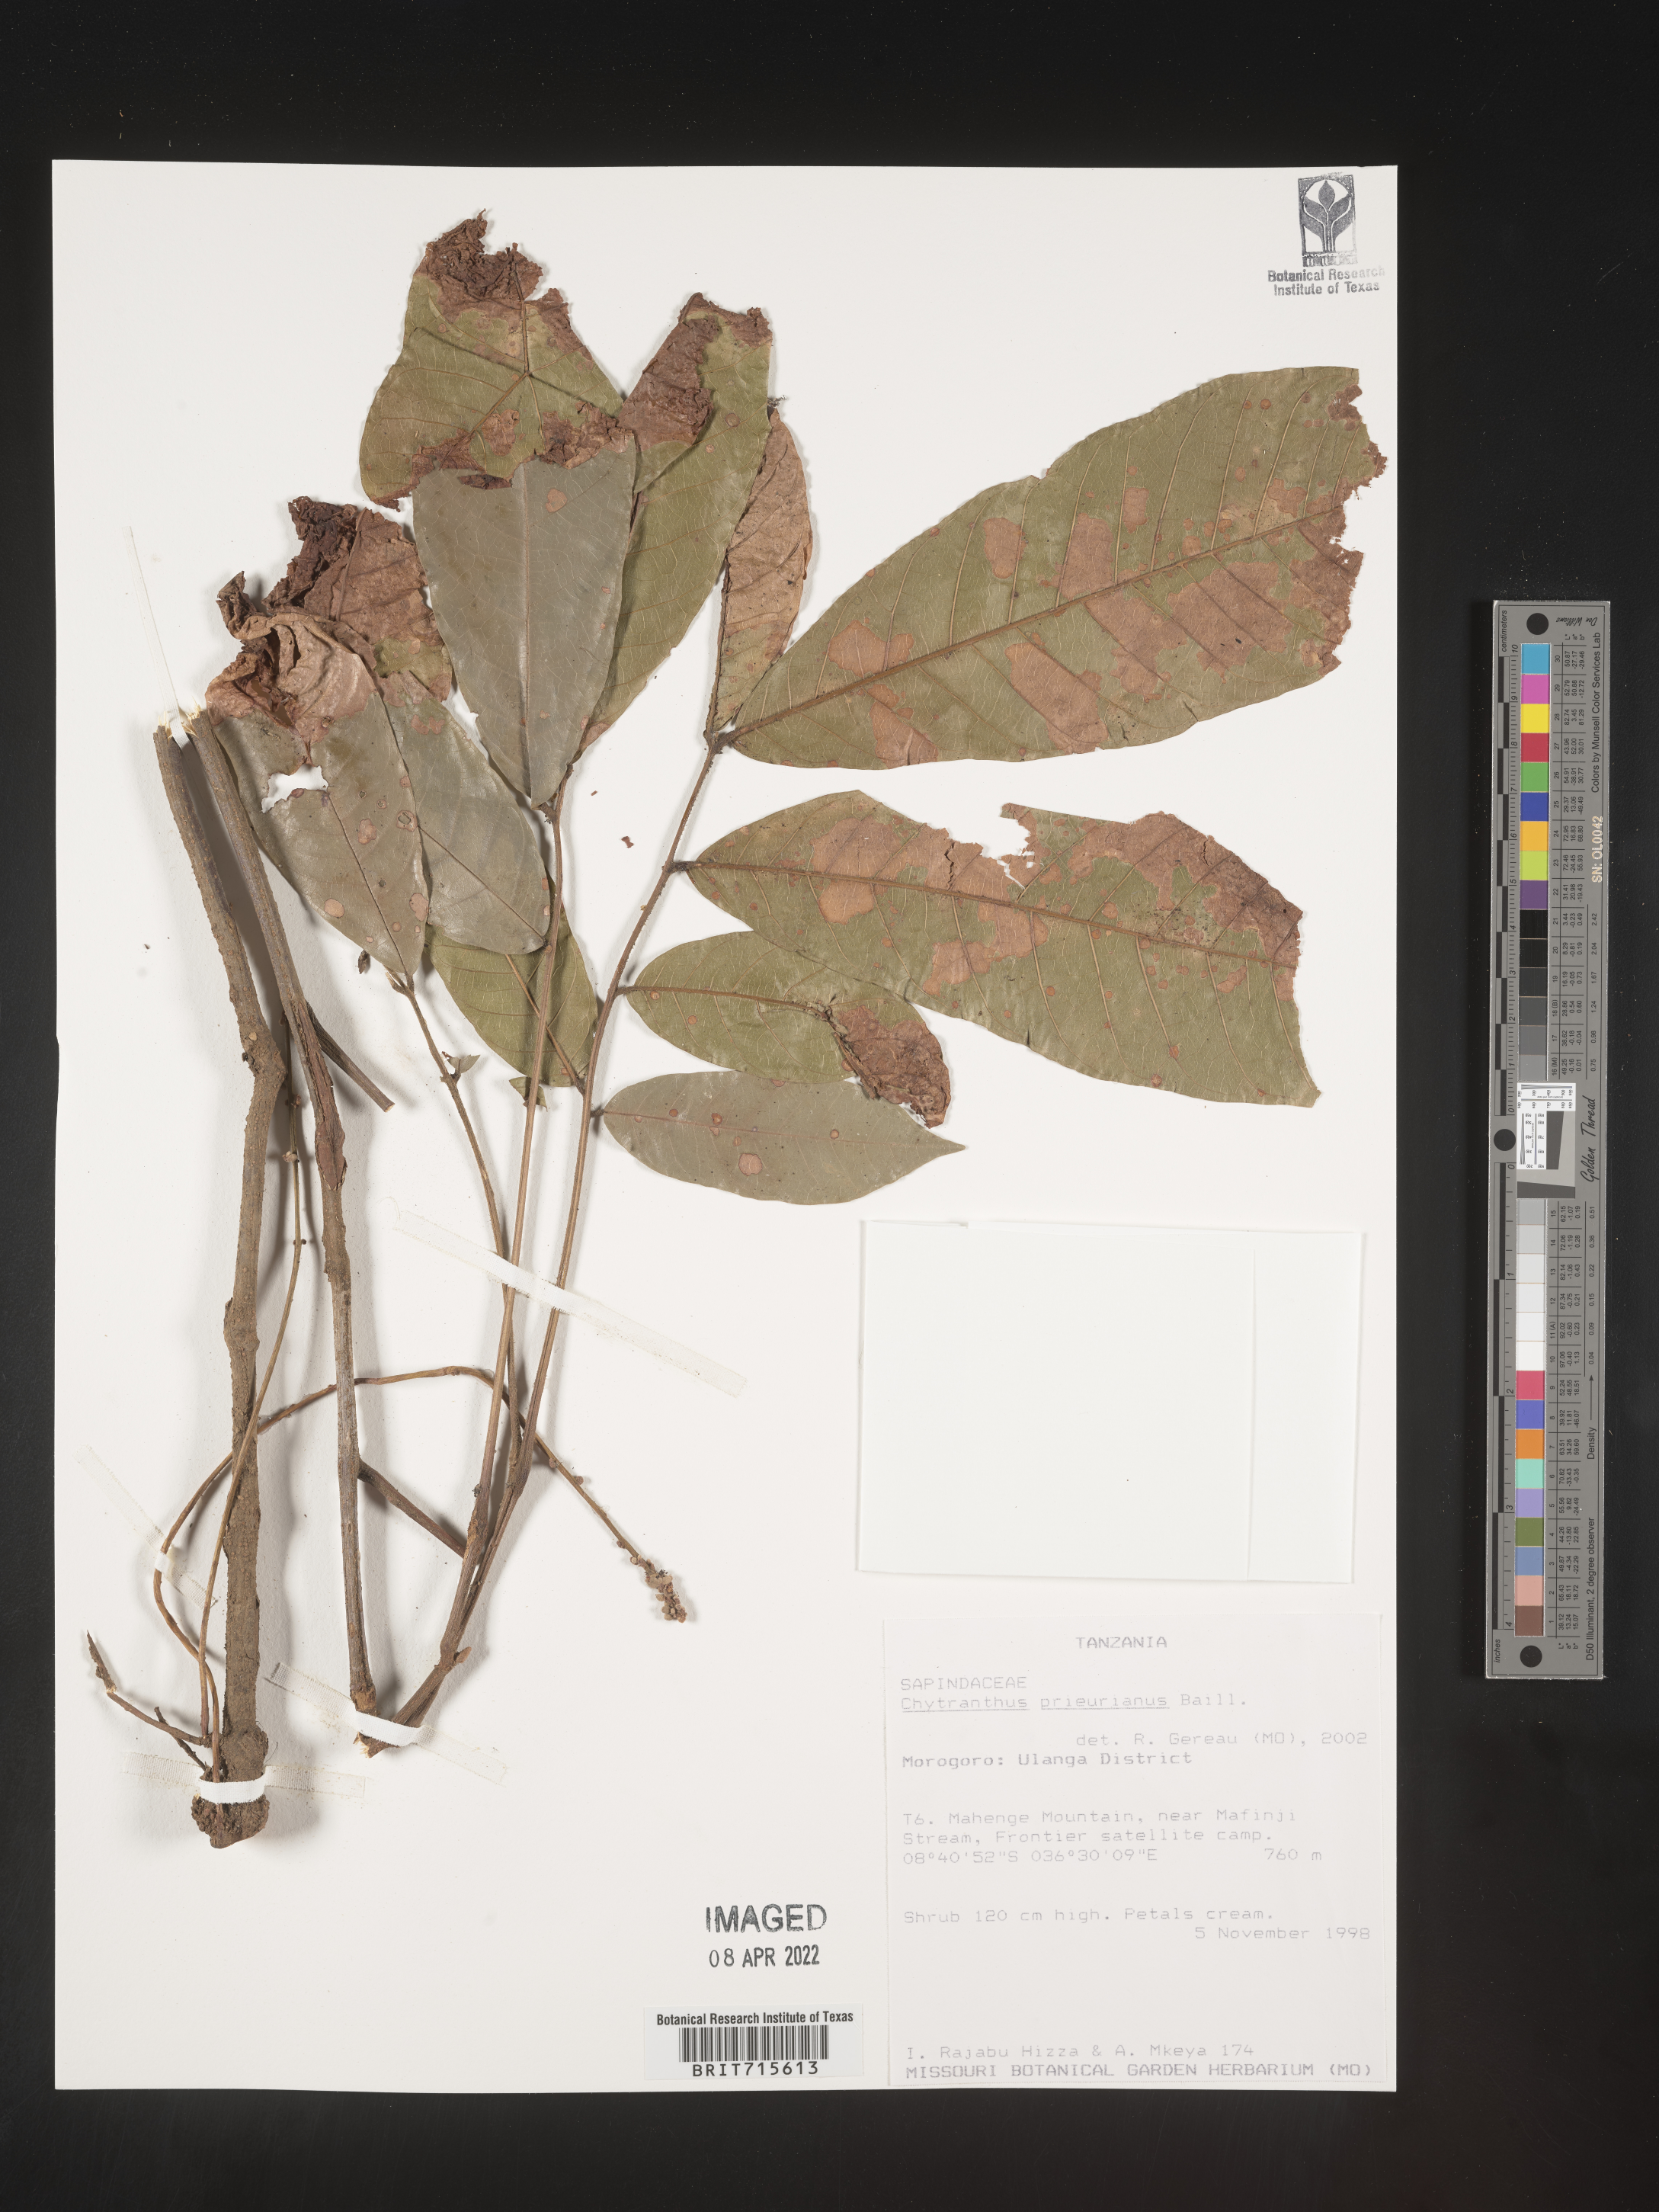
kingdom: Plantae
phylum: Tracheophyta
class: Magnoliopsida
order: Sapindales
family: Sapindaceae
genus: Chytranthus
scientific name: Chytranthus
